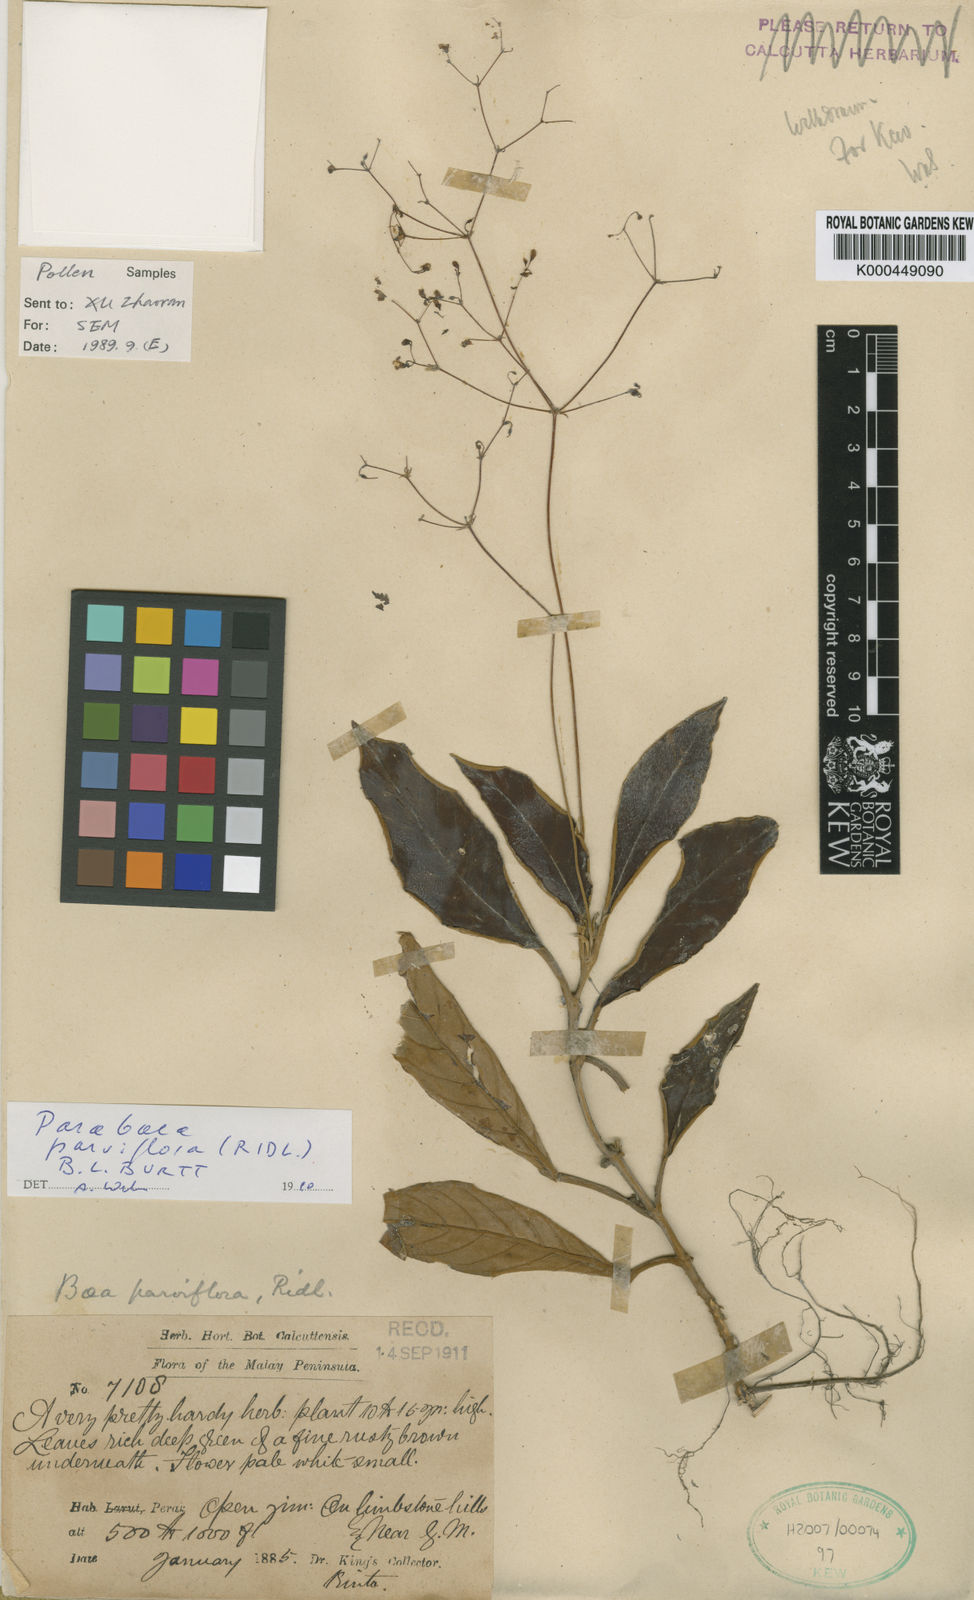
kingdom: Plantae
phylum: Tracheophyta
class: Magnoliopsida
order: Lamiales
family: Gesneriaceae
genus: Paraboea
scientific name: Paraboea parviflora
